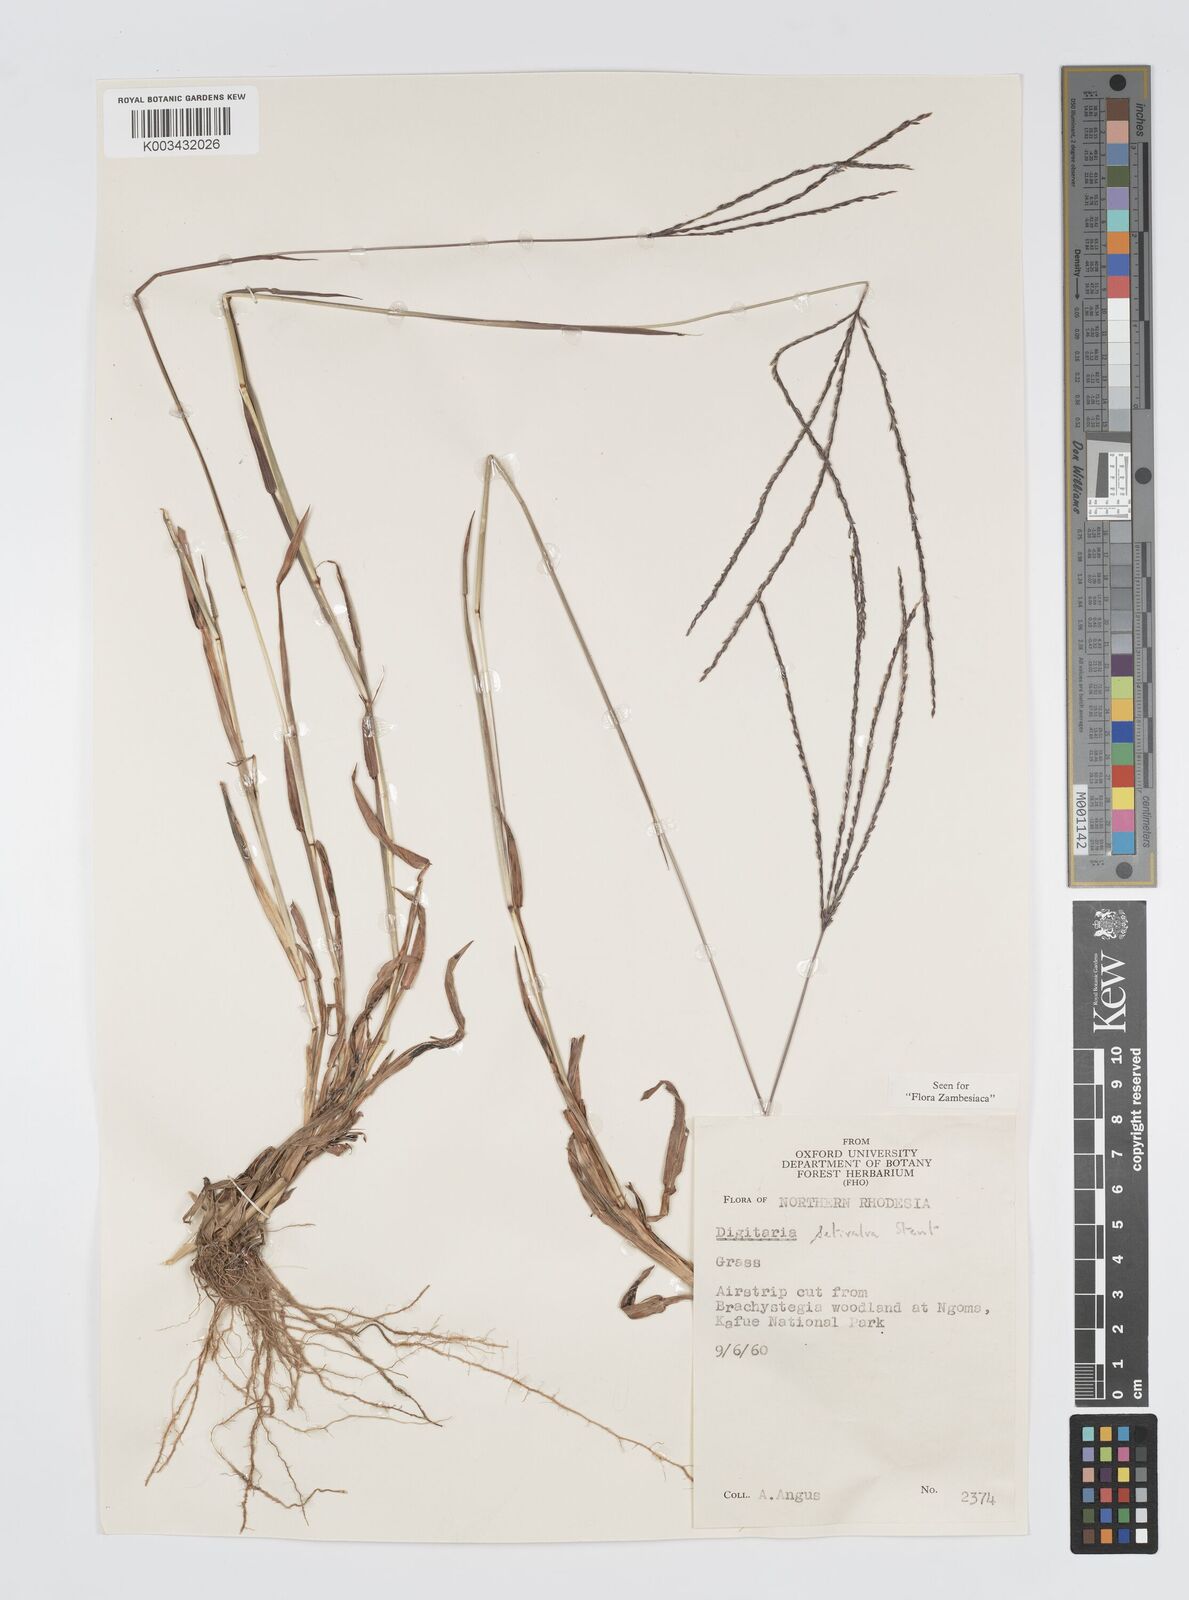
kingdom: Plantae
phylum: Tracheophyta
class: Liliopsida
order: Poales
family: Poaceae
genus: Digitaria
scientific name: Digitaria milanjiana
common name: Madagascar crabgrass
